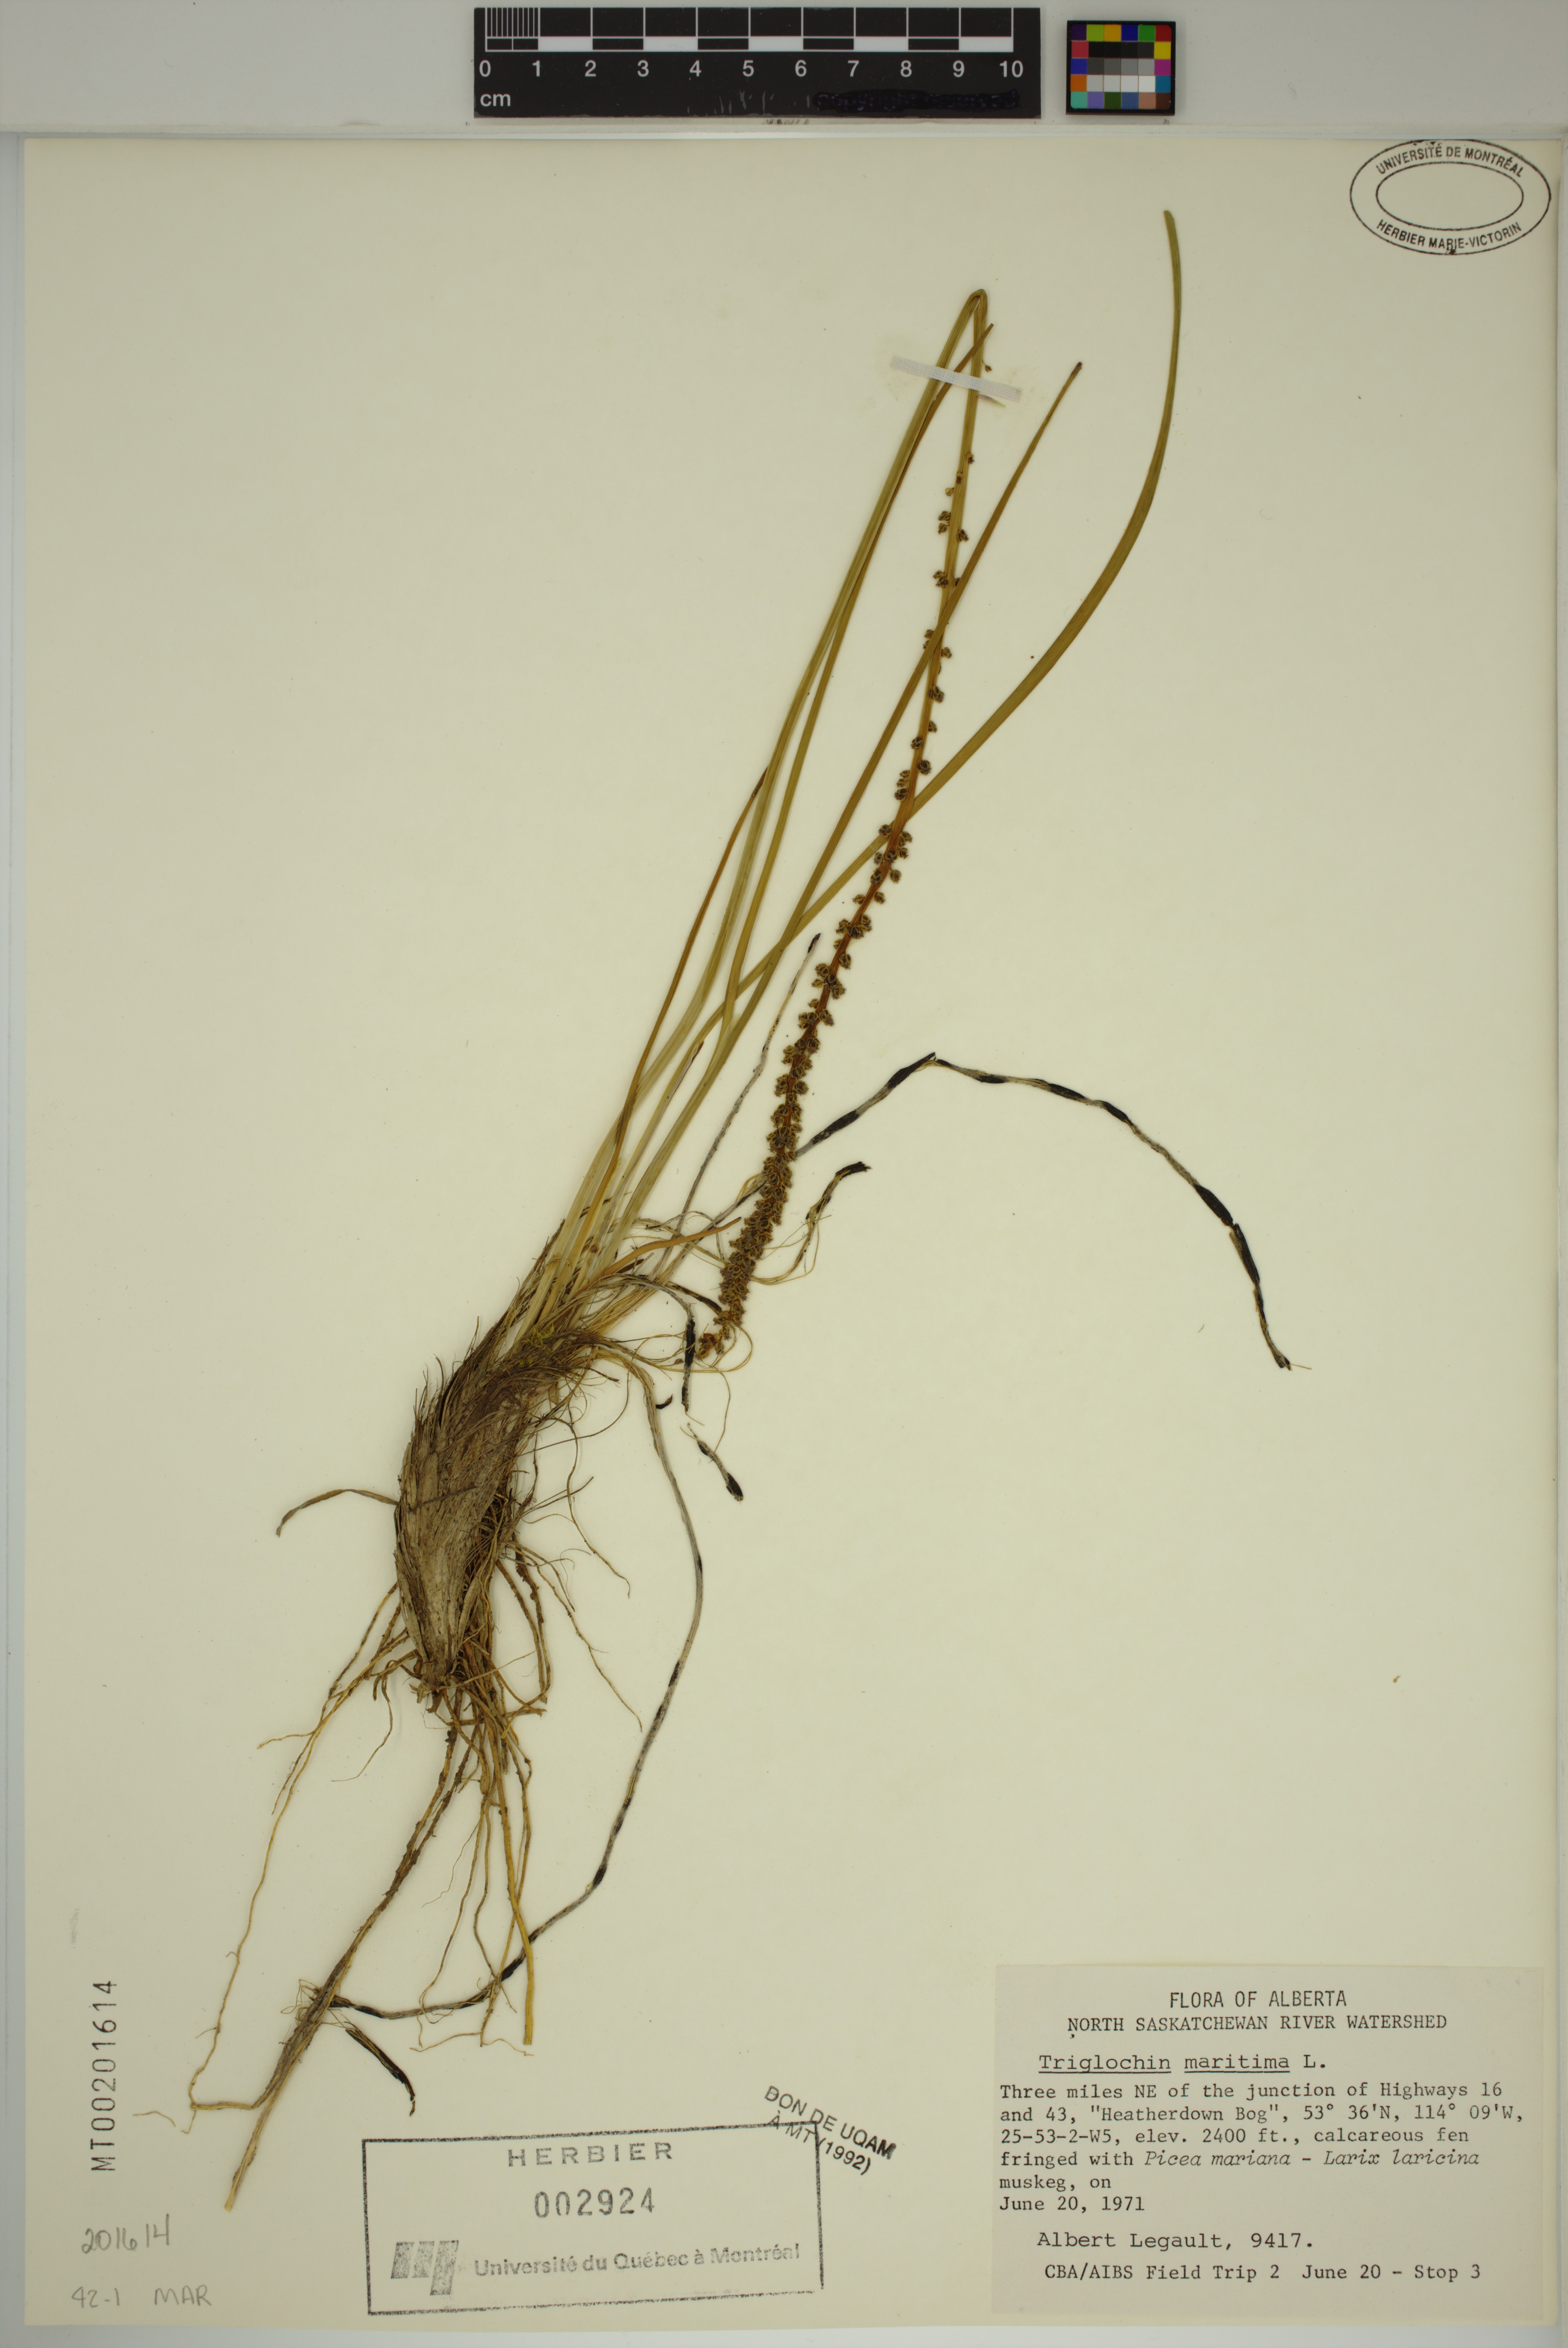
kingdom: Plantae
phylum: Tracheophyta
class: Liliopsida
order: Alismatales
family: Juncaginaceae
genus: Triglochin
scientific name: Triglochin maritima
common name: Sea arrowgrass
